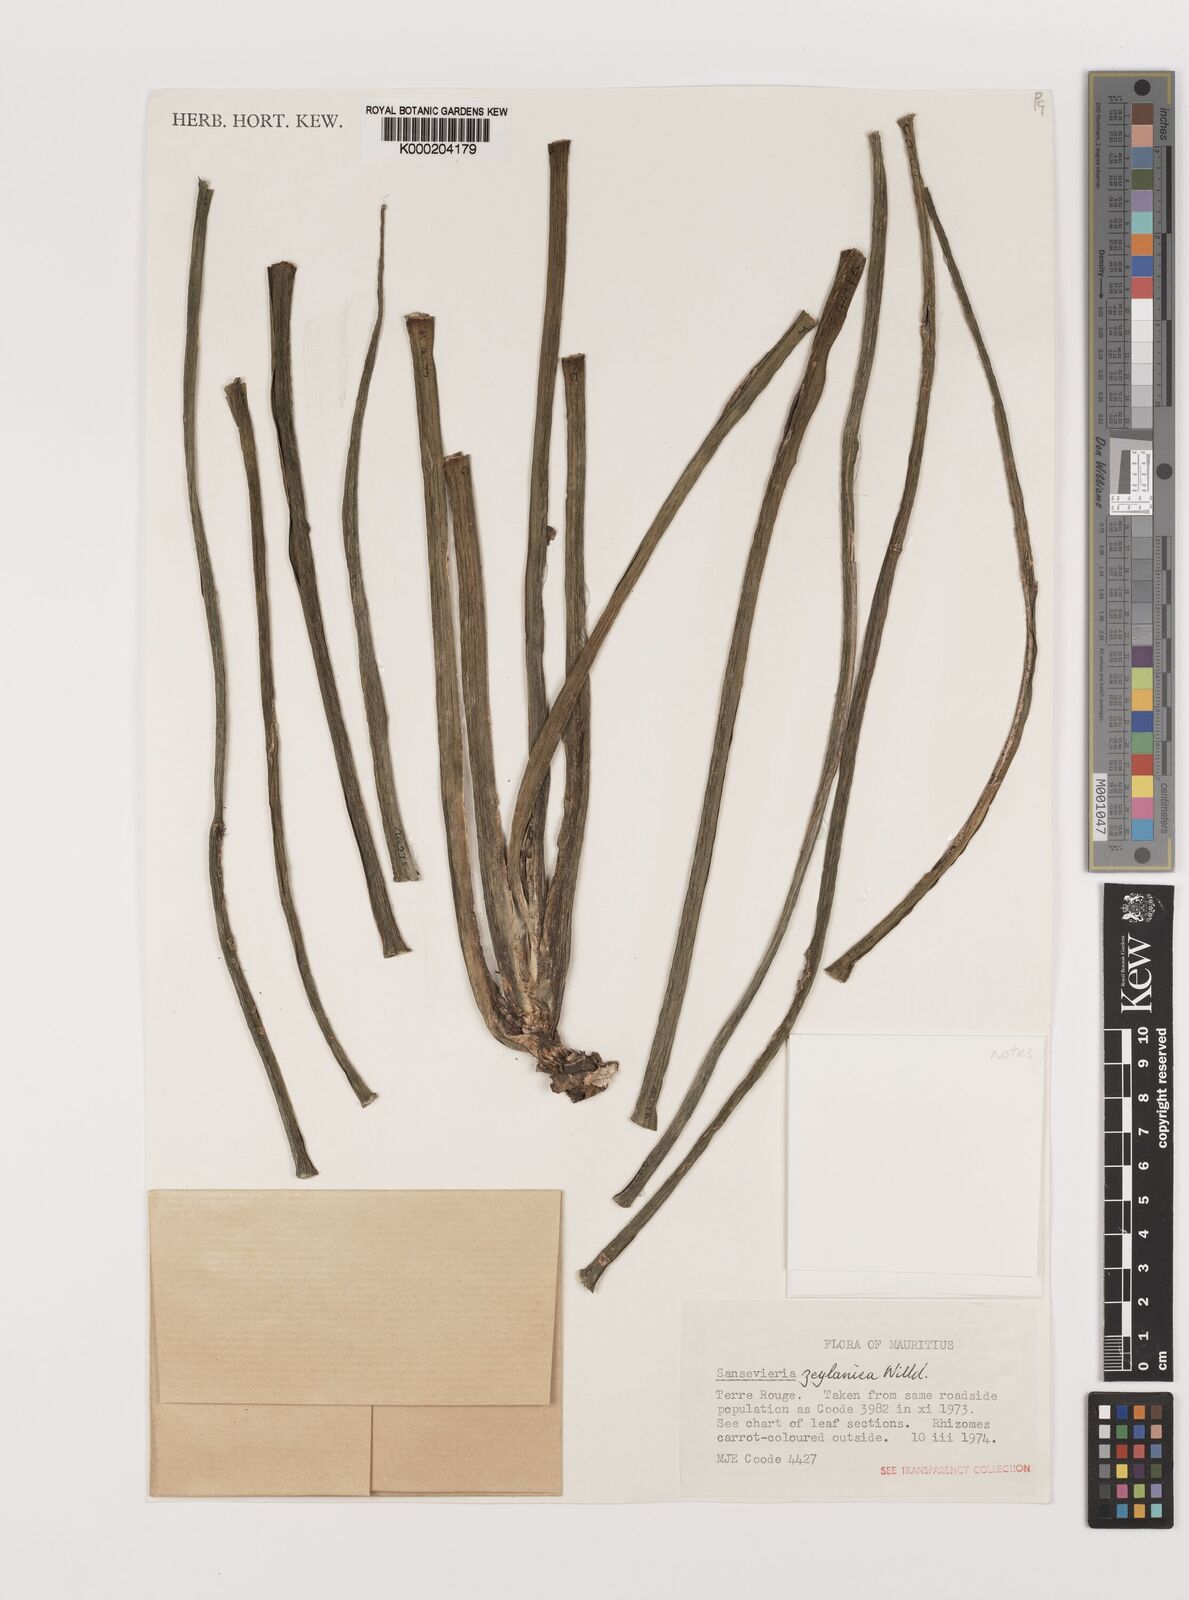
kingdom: Plantae
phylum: Tracheophyta
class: Liliopsida
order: Asparagales
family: Asparagaceae
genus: Dracaena
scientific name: Dracaena zeylanica
